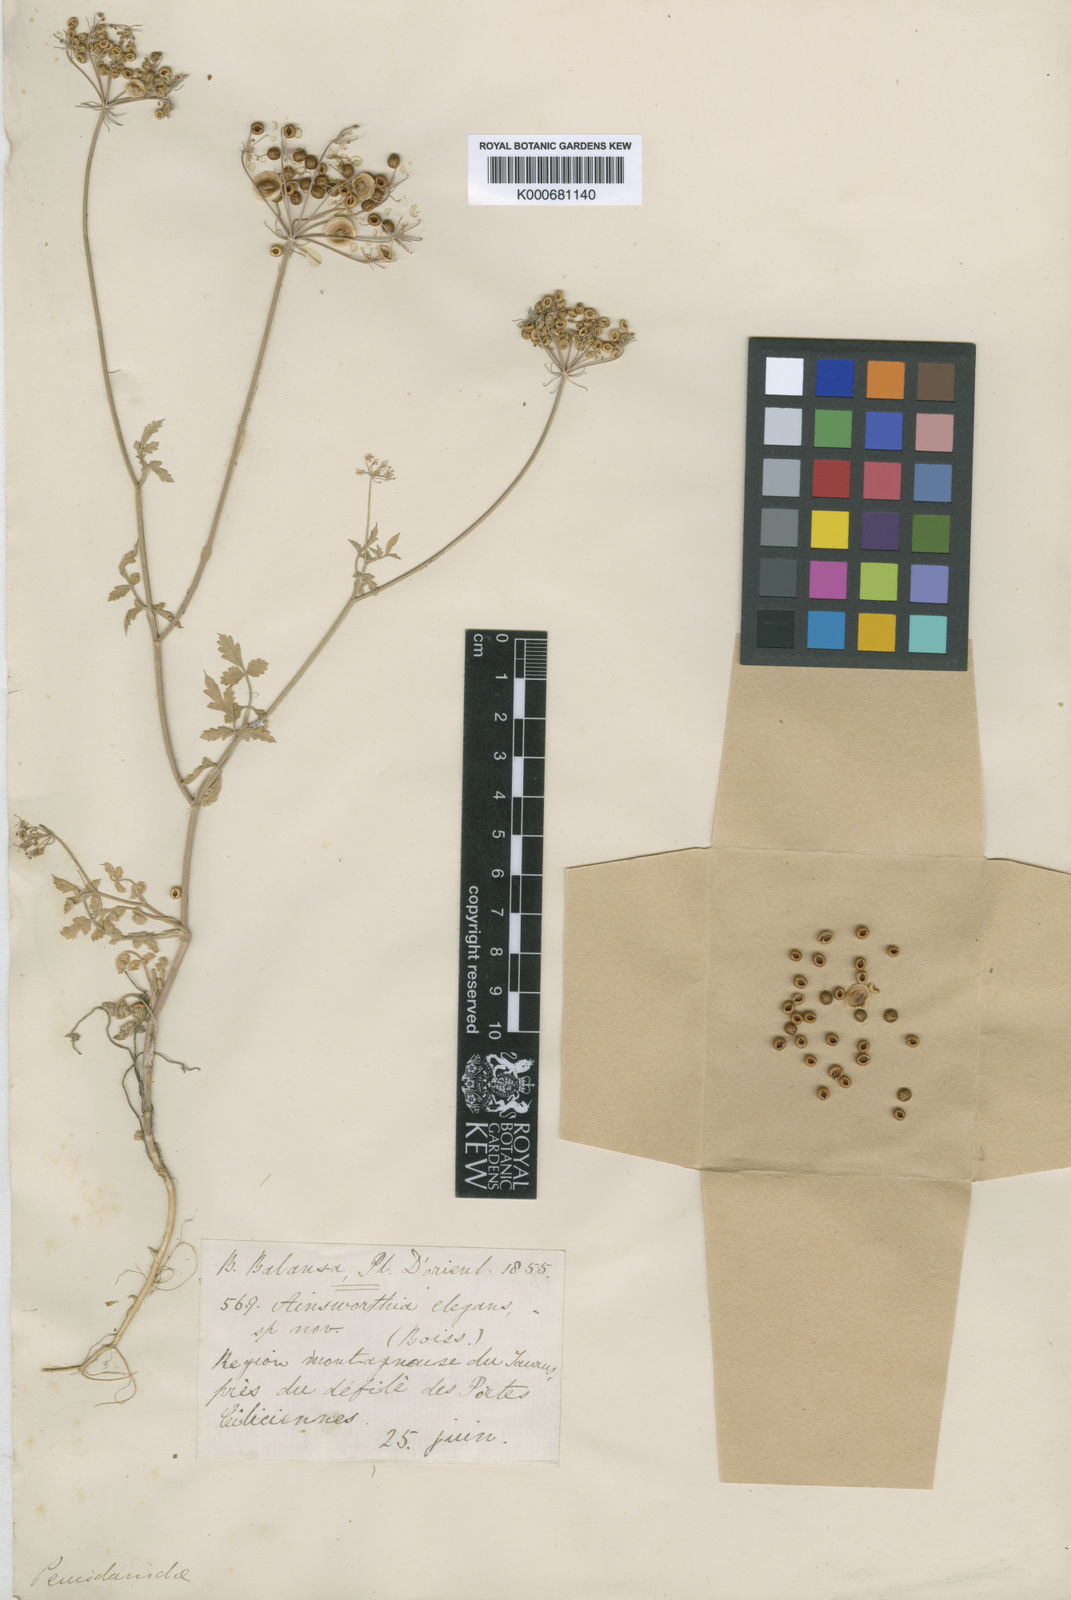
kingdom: Plantae
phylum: Tracheophyta
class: Magnoliopsida
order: Apiales
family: Apiaceae
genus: Tordylium
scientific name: Tordylium
